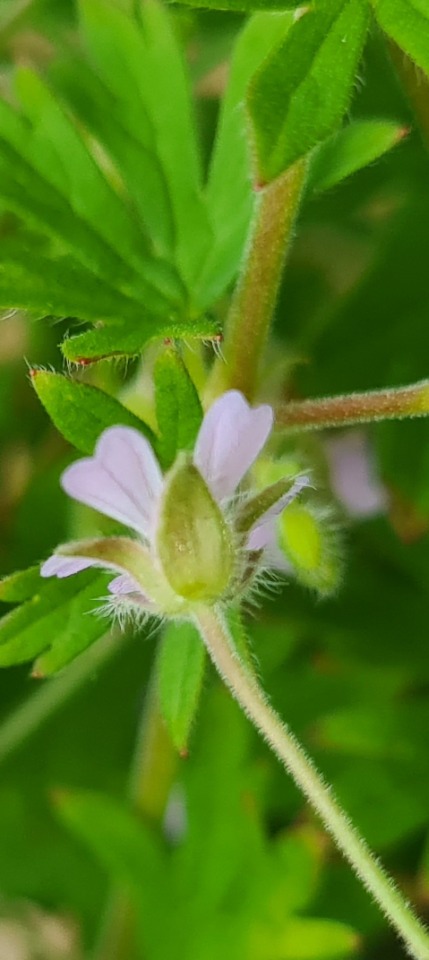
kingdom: Plantae
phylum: Tracheophyta
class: Magnoliopsida
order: Geraniales
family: Geraniaceae
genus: Geranium
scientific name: Geranium pusillum
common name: Liden storkenæb
